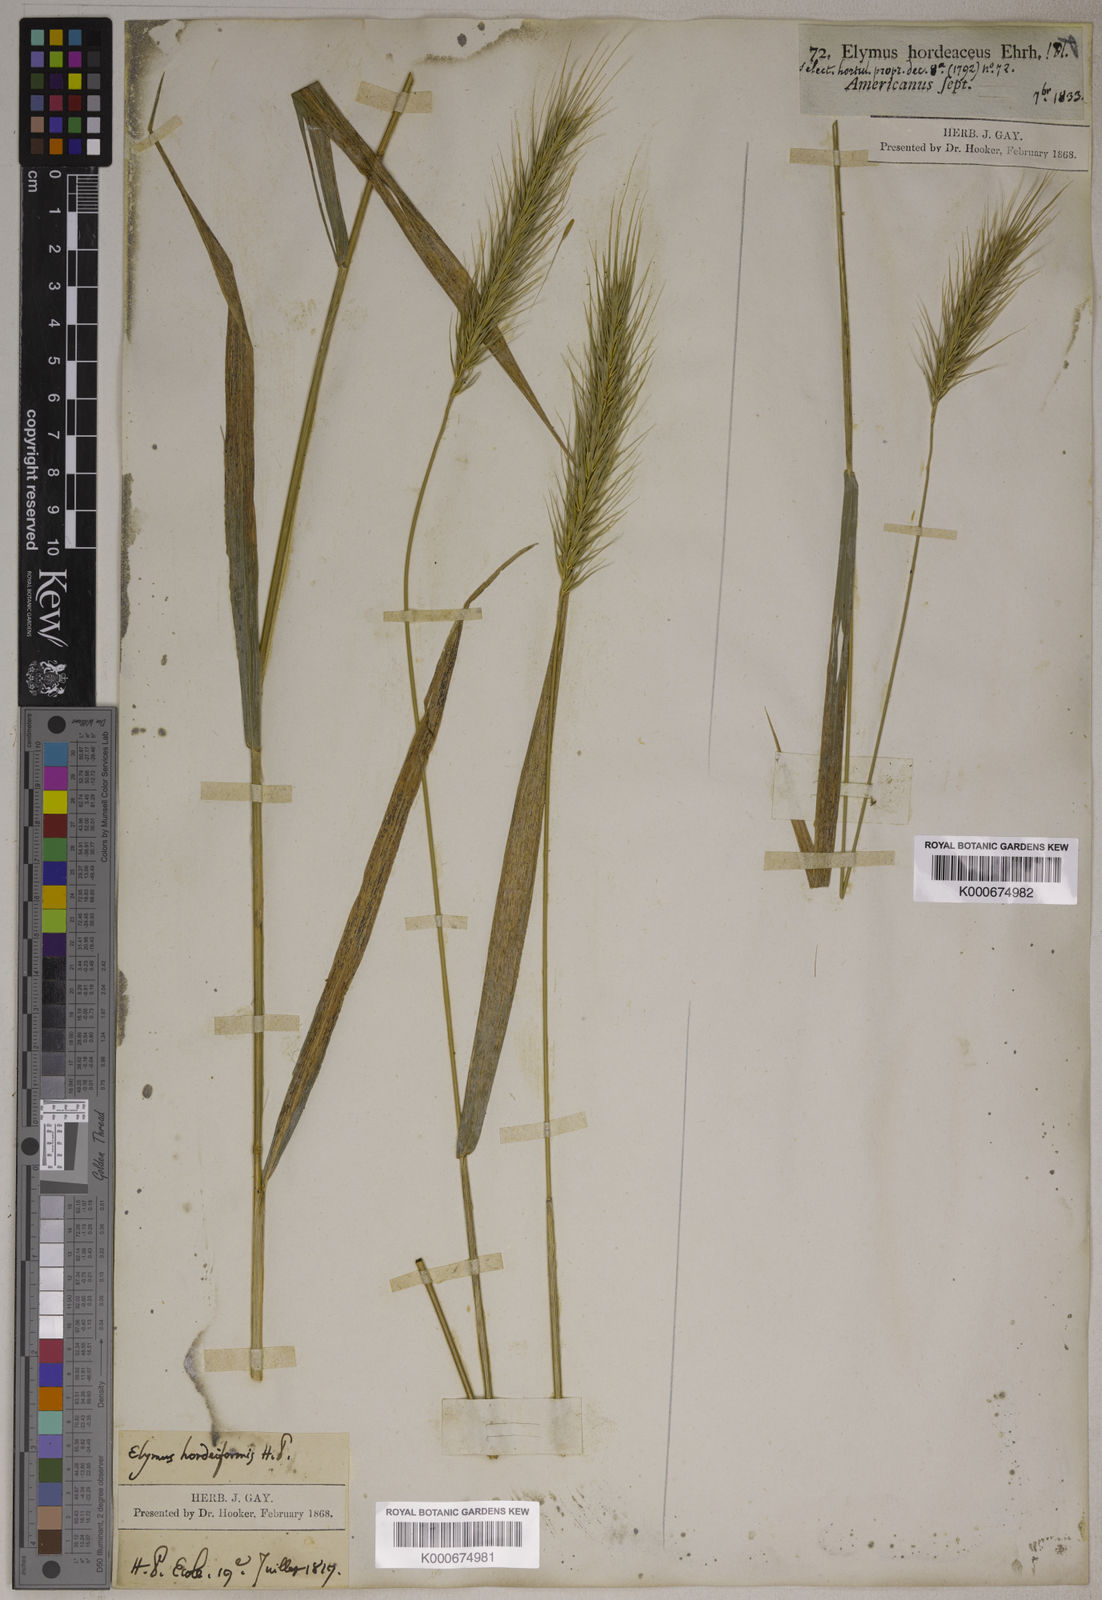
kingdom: Plantae
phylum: Tracheophyta
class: Liliopsida
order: Poales
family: Poaceae
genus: Elymus
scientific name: Elymus virginicus
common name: Common eastern wildrye
